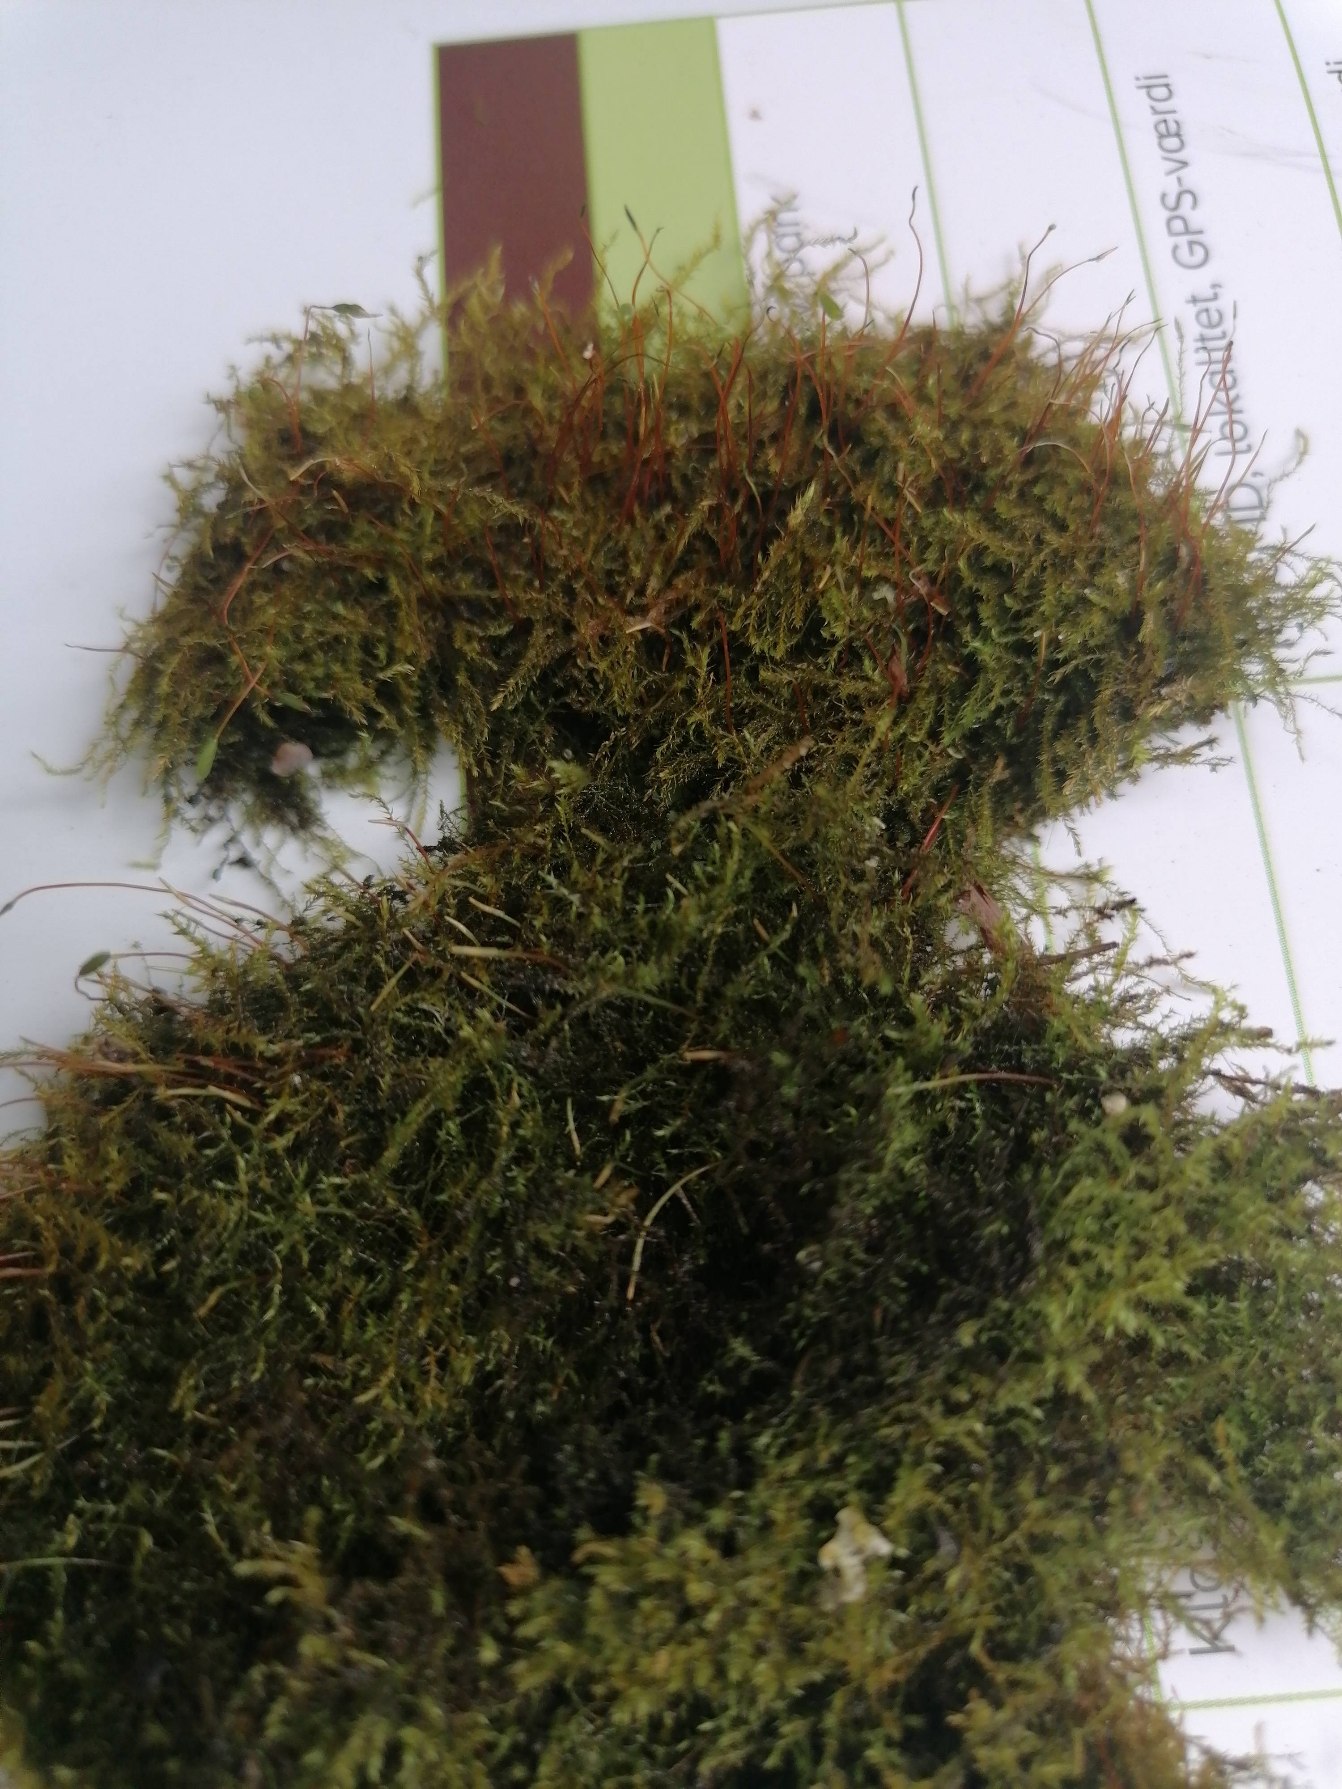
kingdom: Plantae
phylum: Bryophyta
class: Bryopsida
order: Hypnales
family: Amblystegiaceae
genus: Amblystegium
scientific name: Amblystegium serpens
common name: Almindelig krybmos
